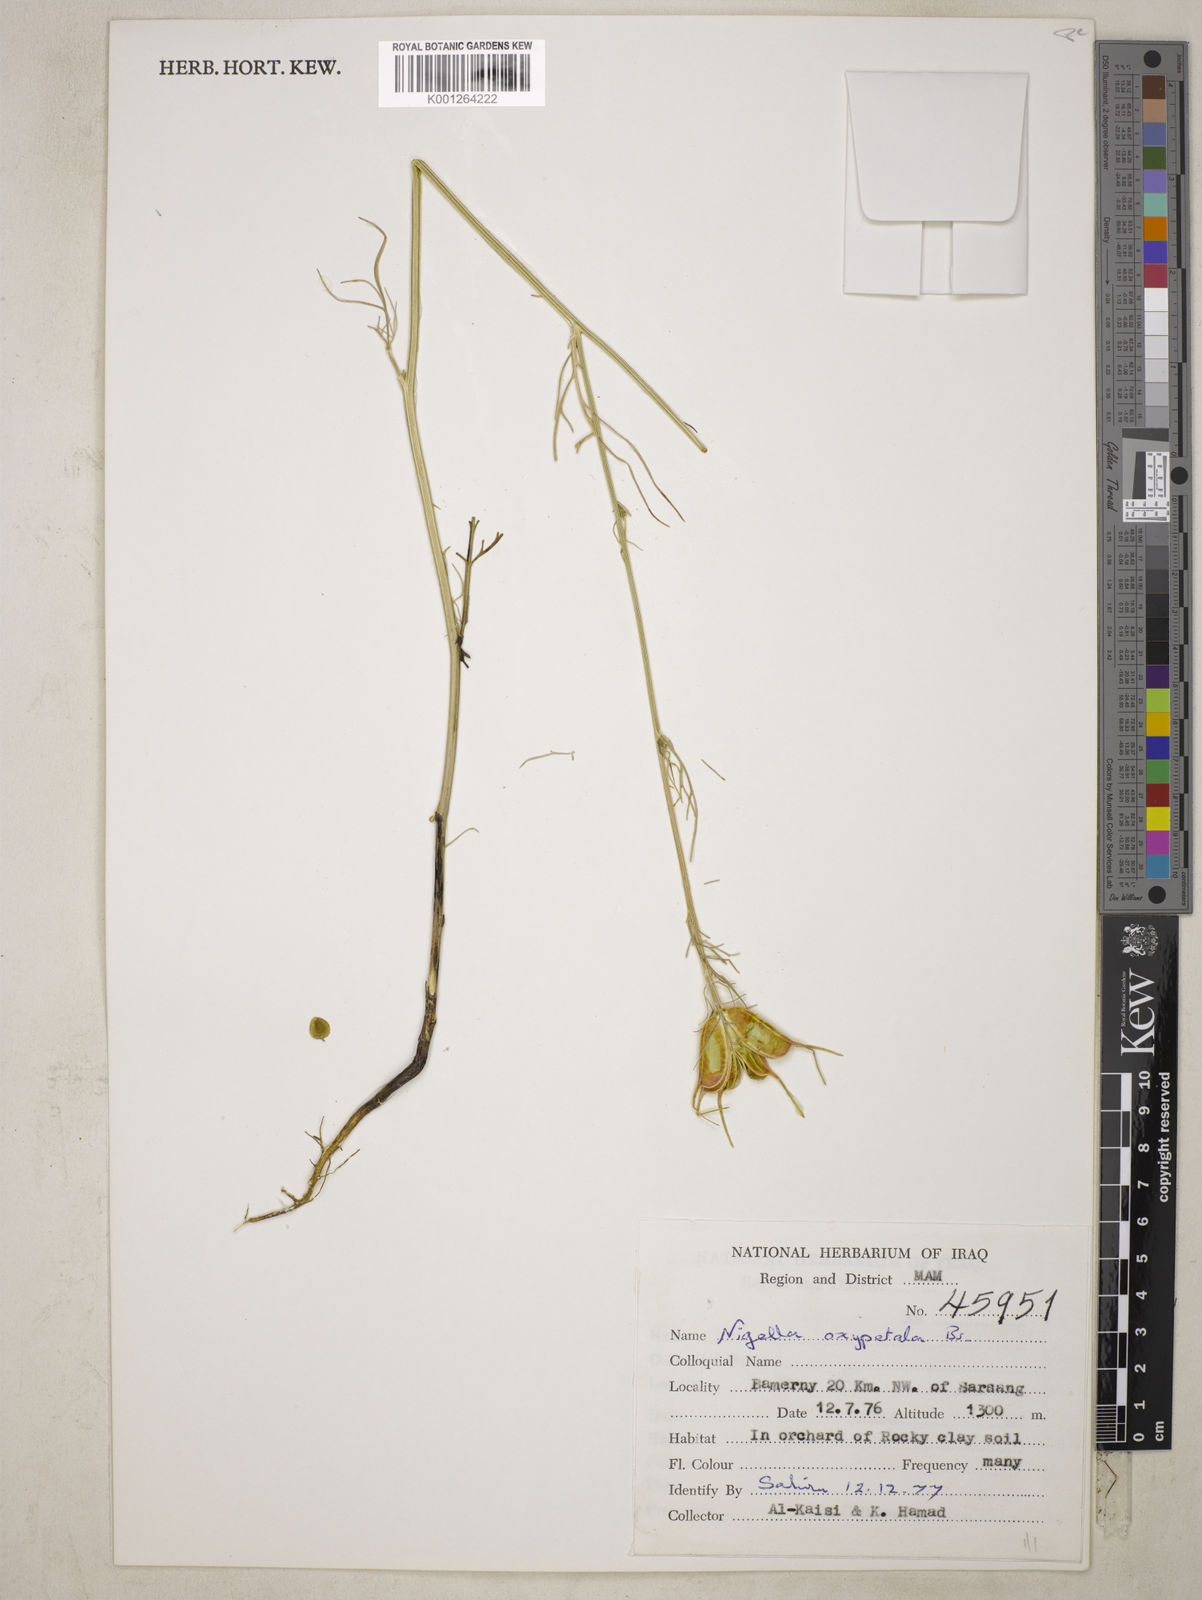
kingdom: Plantae
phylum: Tracheophyta
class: Magnoliopsida
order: Ranunculales
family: Ranunculaceae
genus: Nigella
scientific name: Nigella oxypetala
